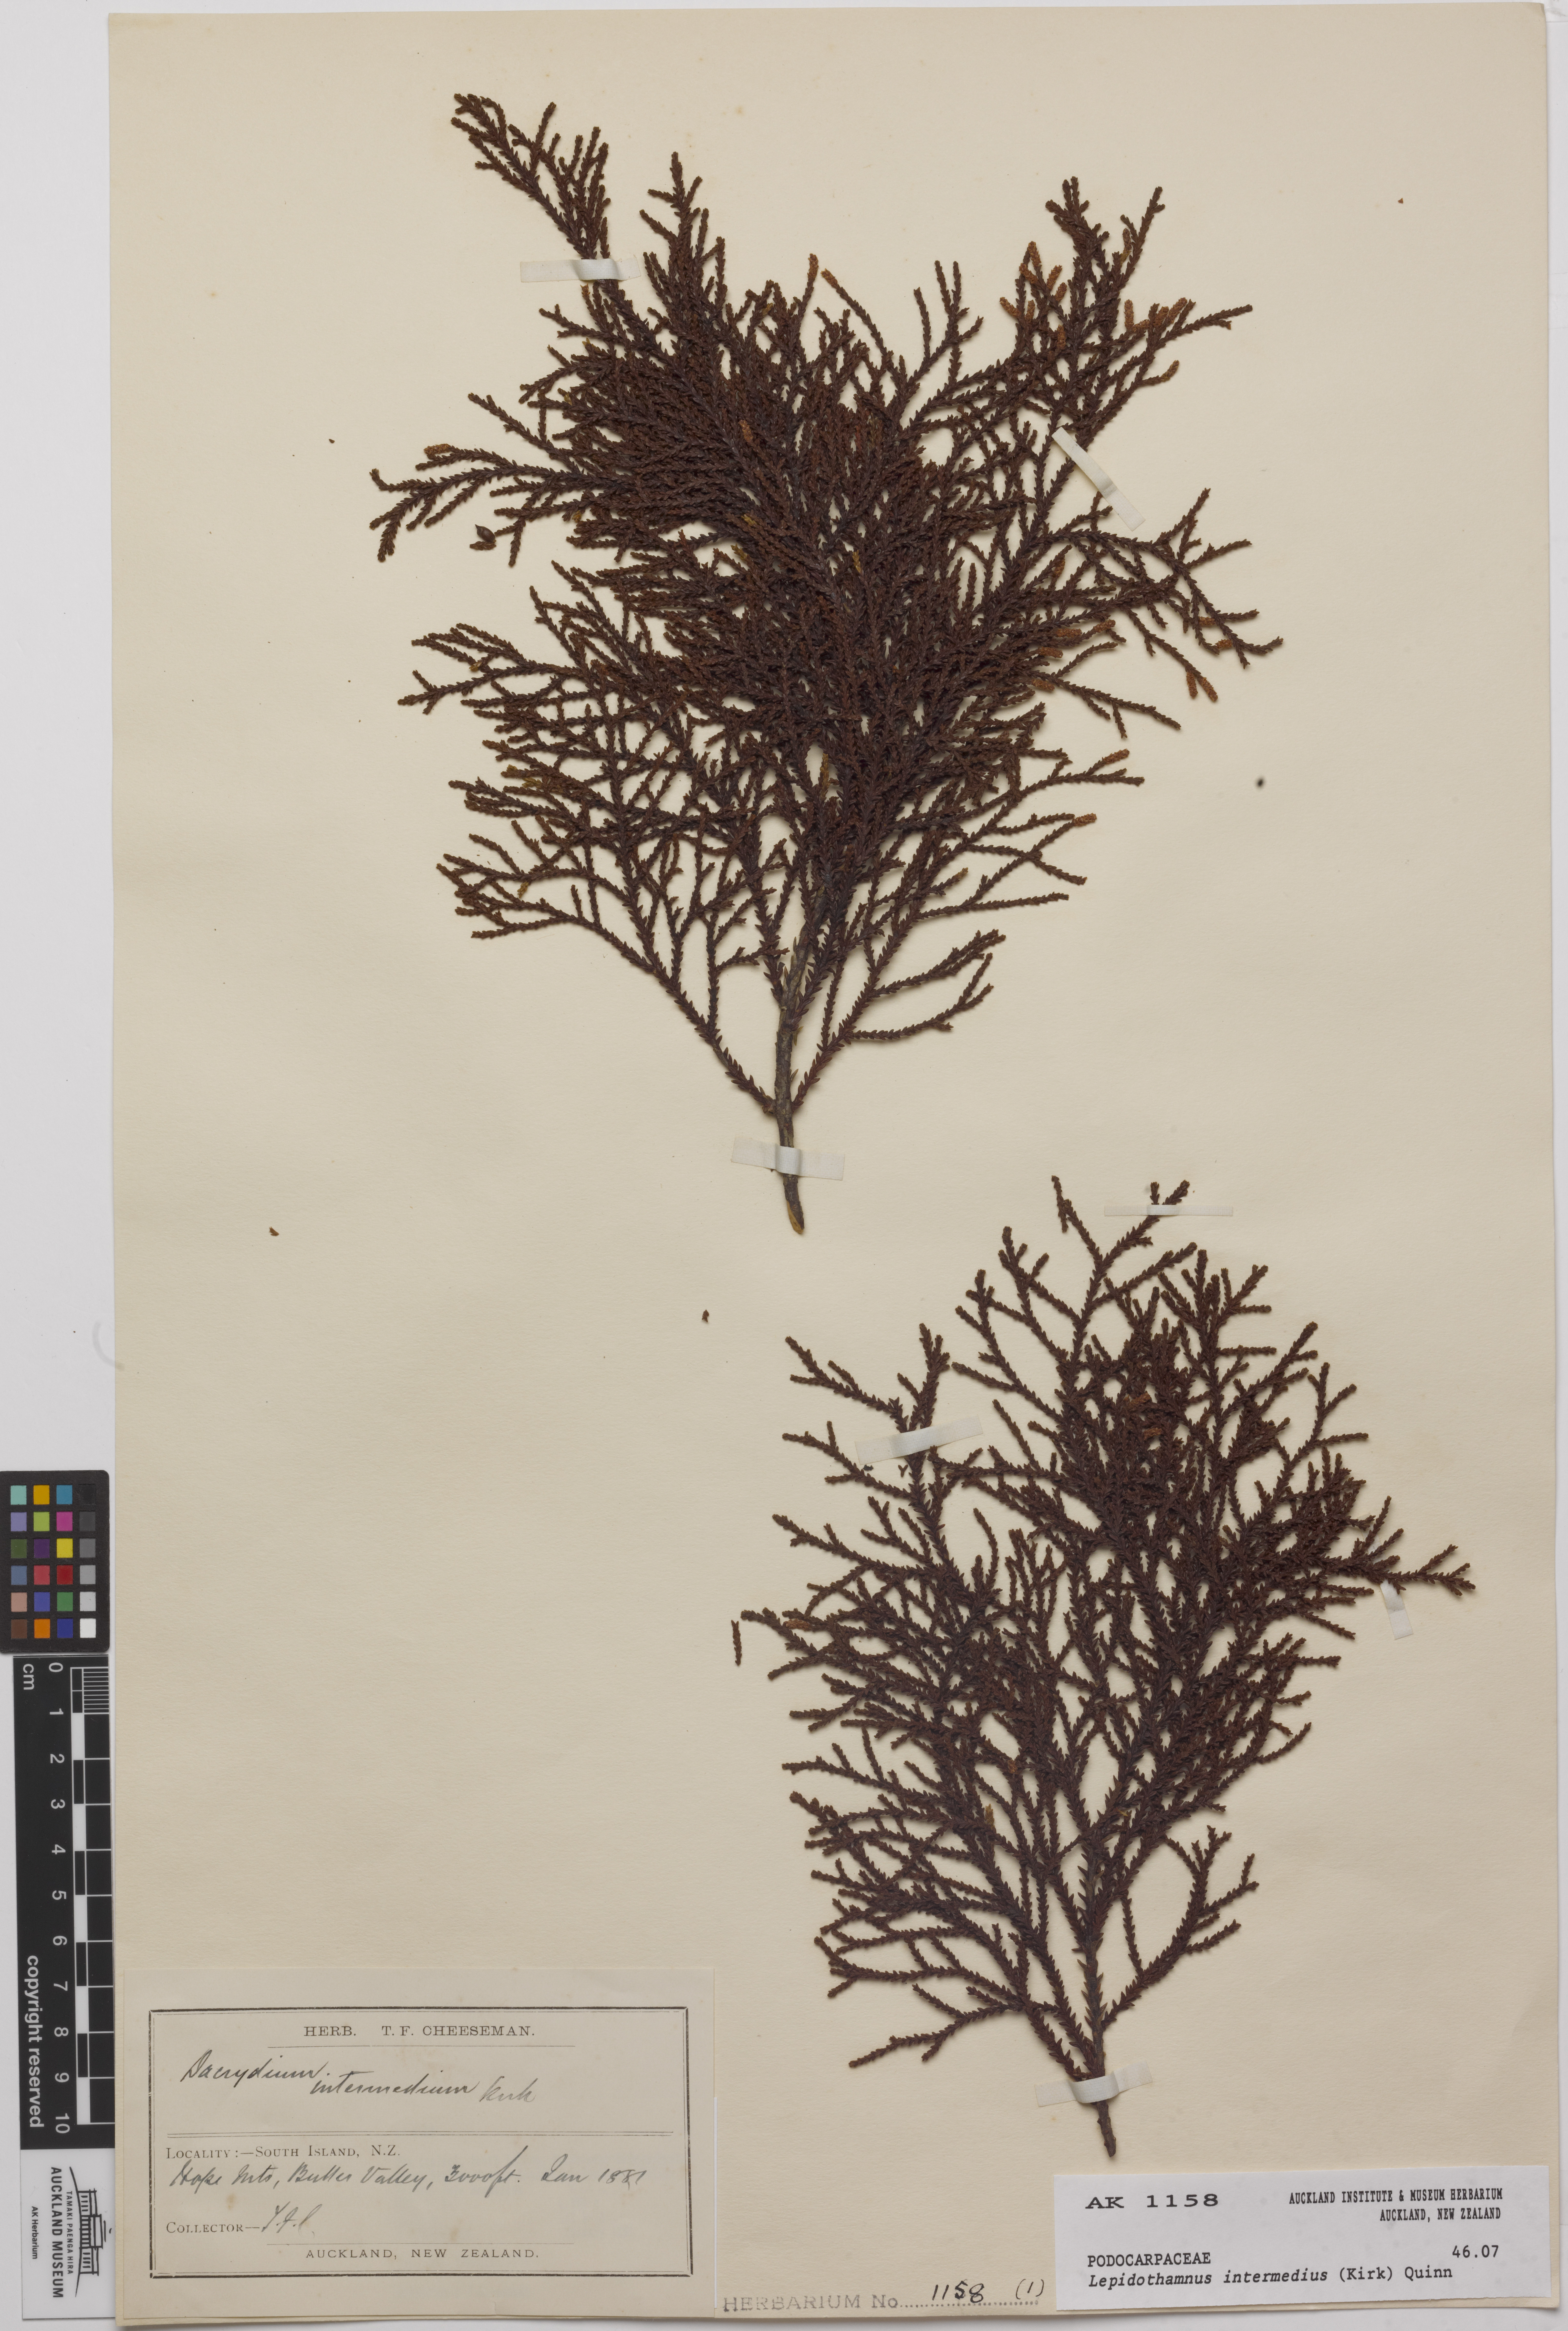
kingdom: Plantae
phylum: Tracheophyta
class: Pinopsida
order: Pinales
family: Podocarpaceae
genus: Lepidothamnus
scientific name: Lepidothamnus intermedius
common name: Yellow silver pine
